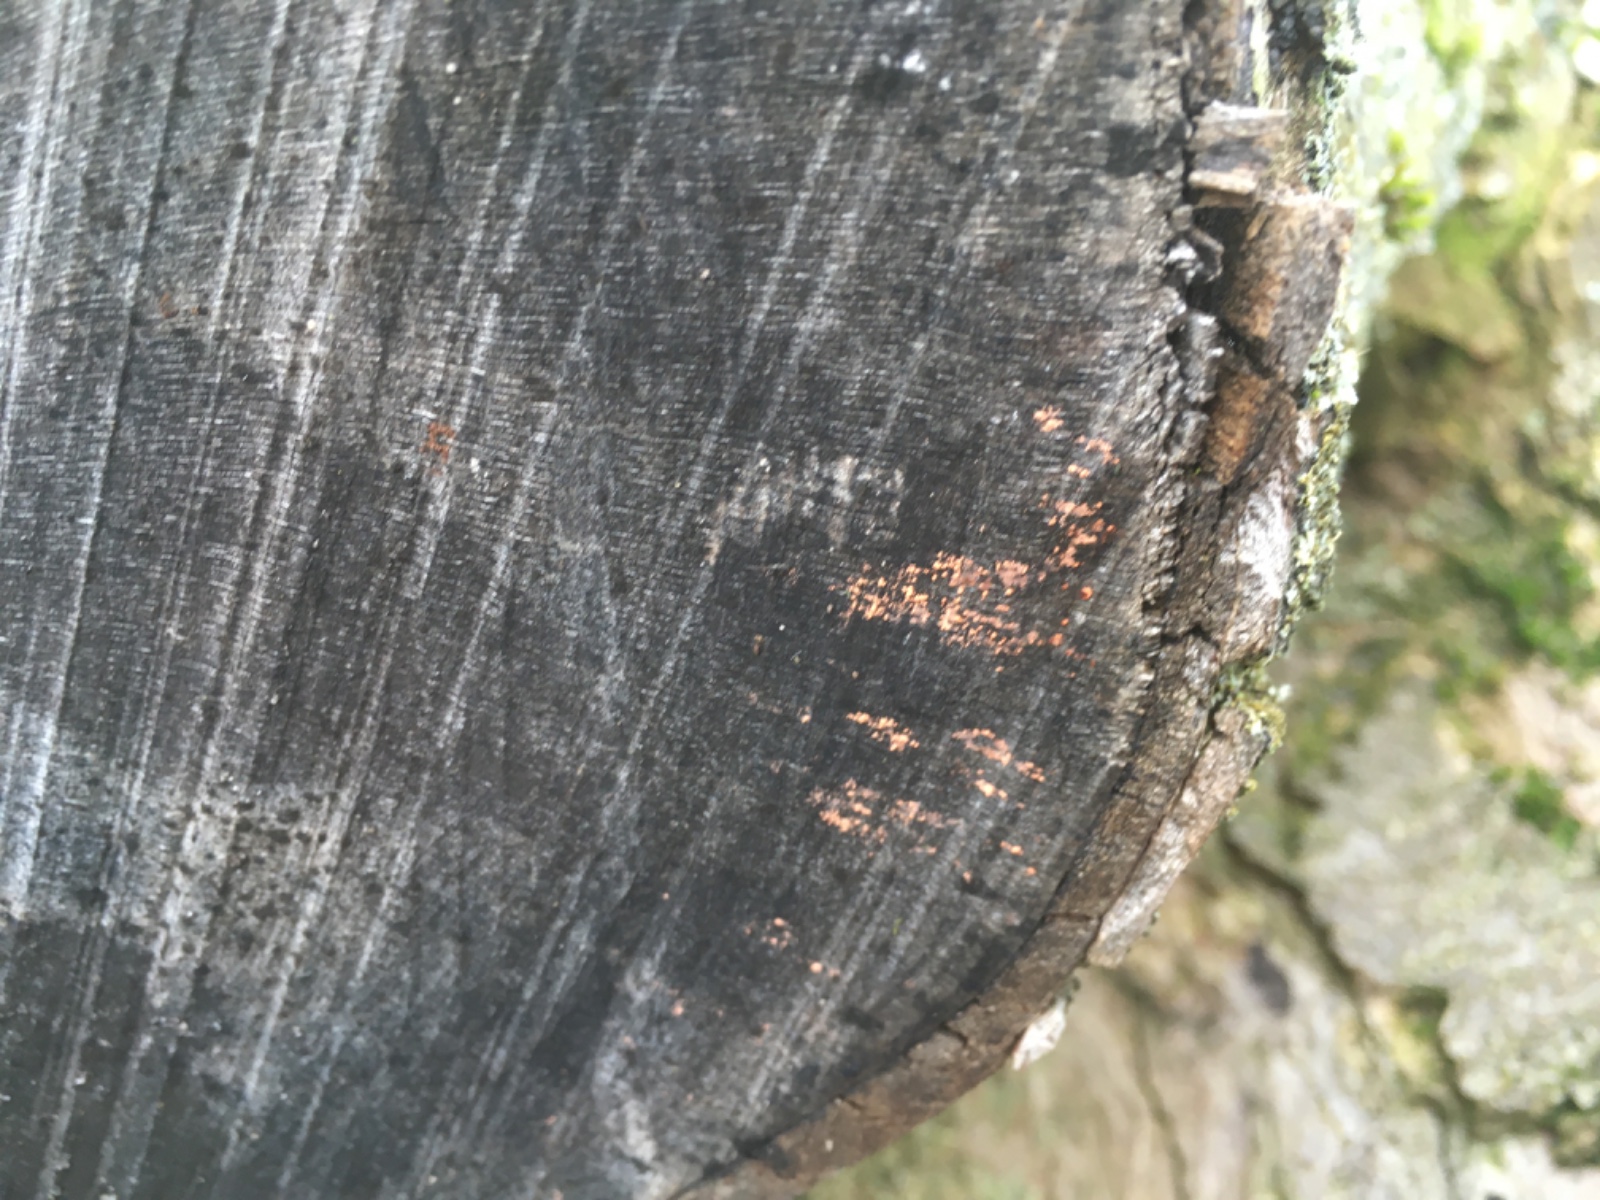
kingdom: Fungi
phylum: Basidiomycota
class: Agaricomycetes
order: Russulales
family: Peniophoraceae
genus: Peniophora
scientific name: Peniophora incarnata
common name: laksefarvet voksskind
